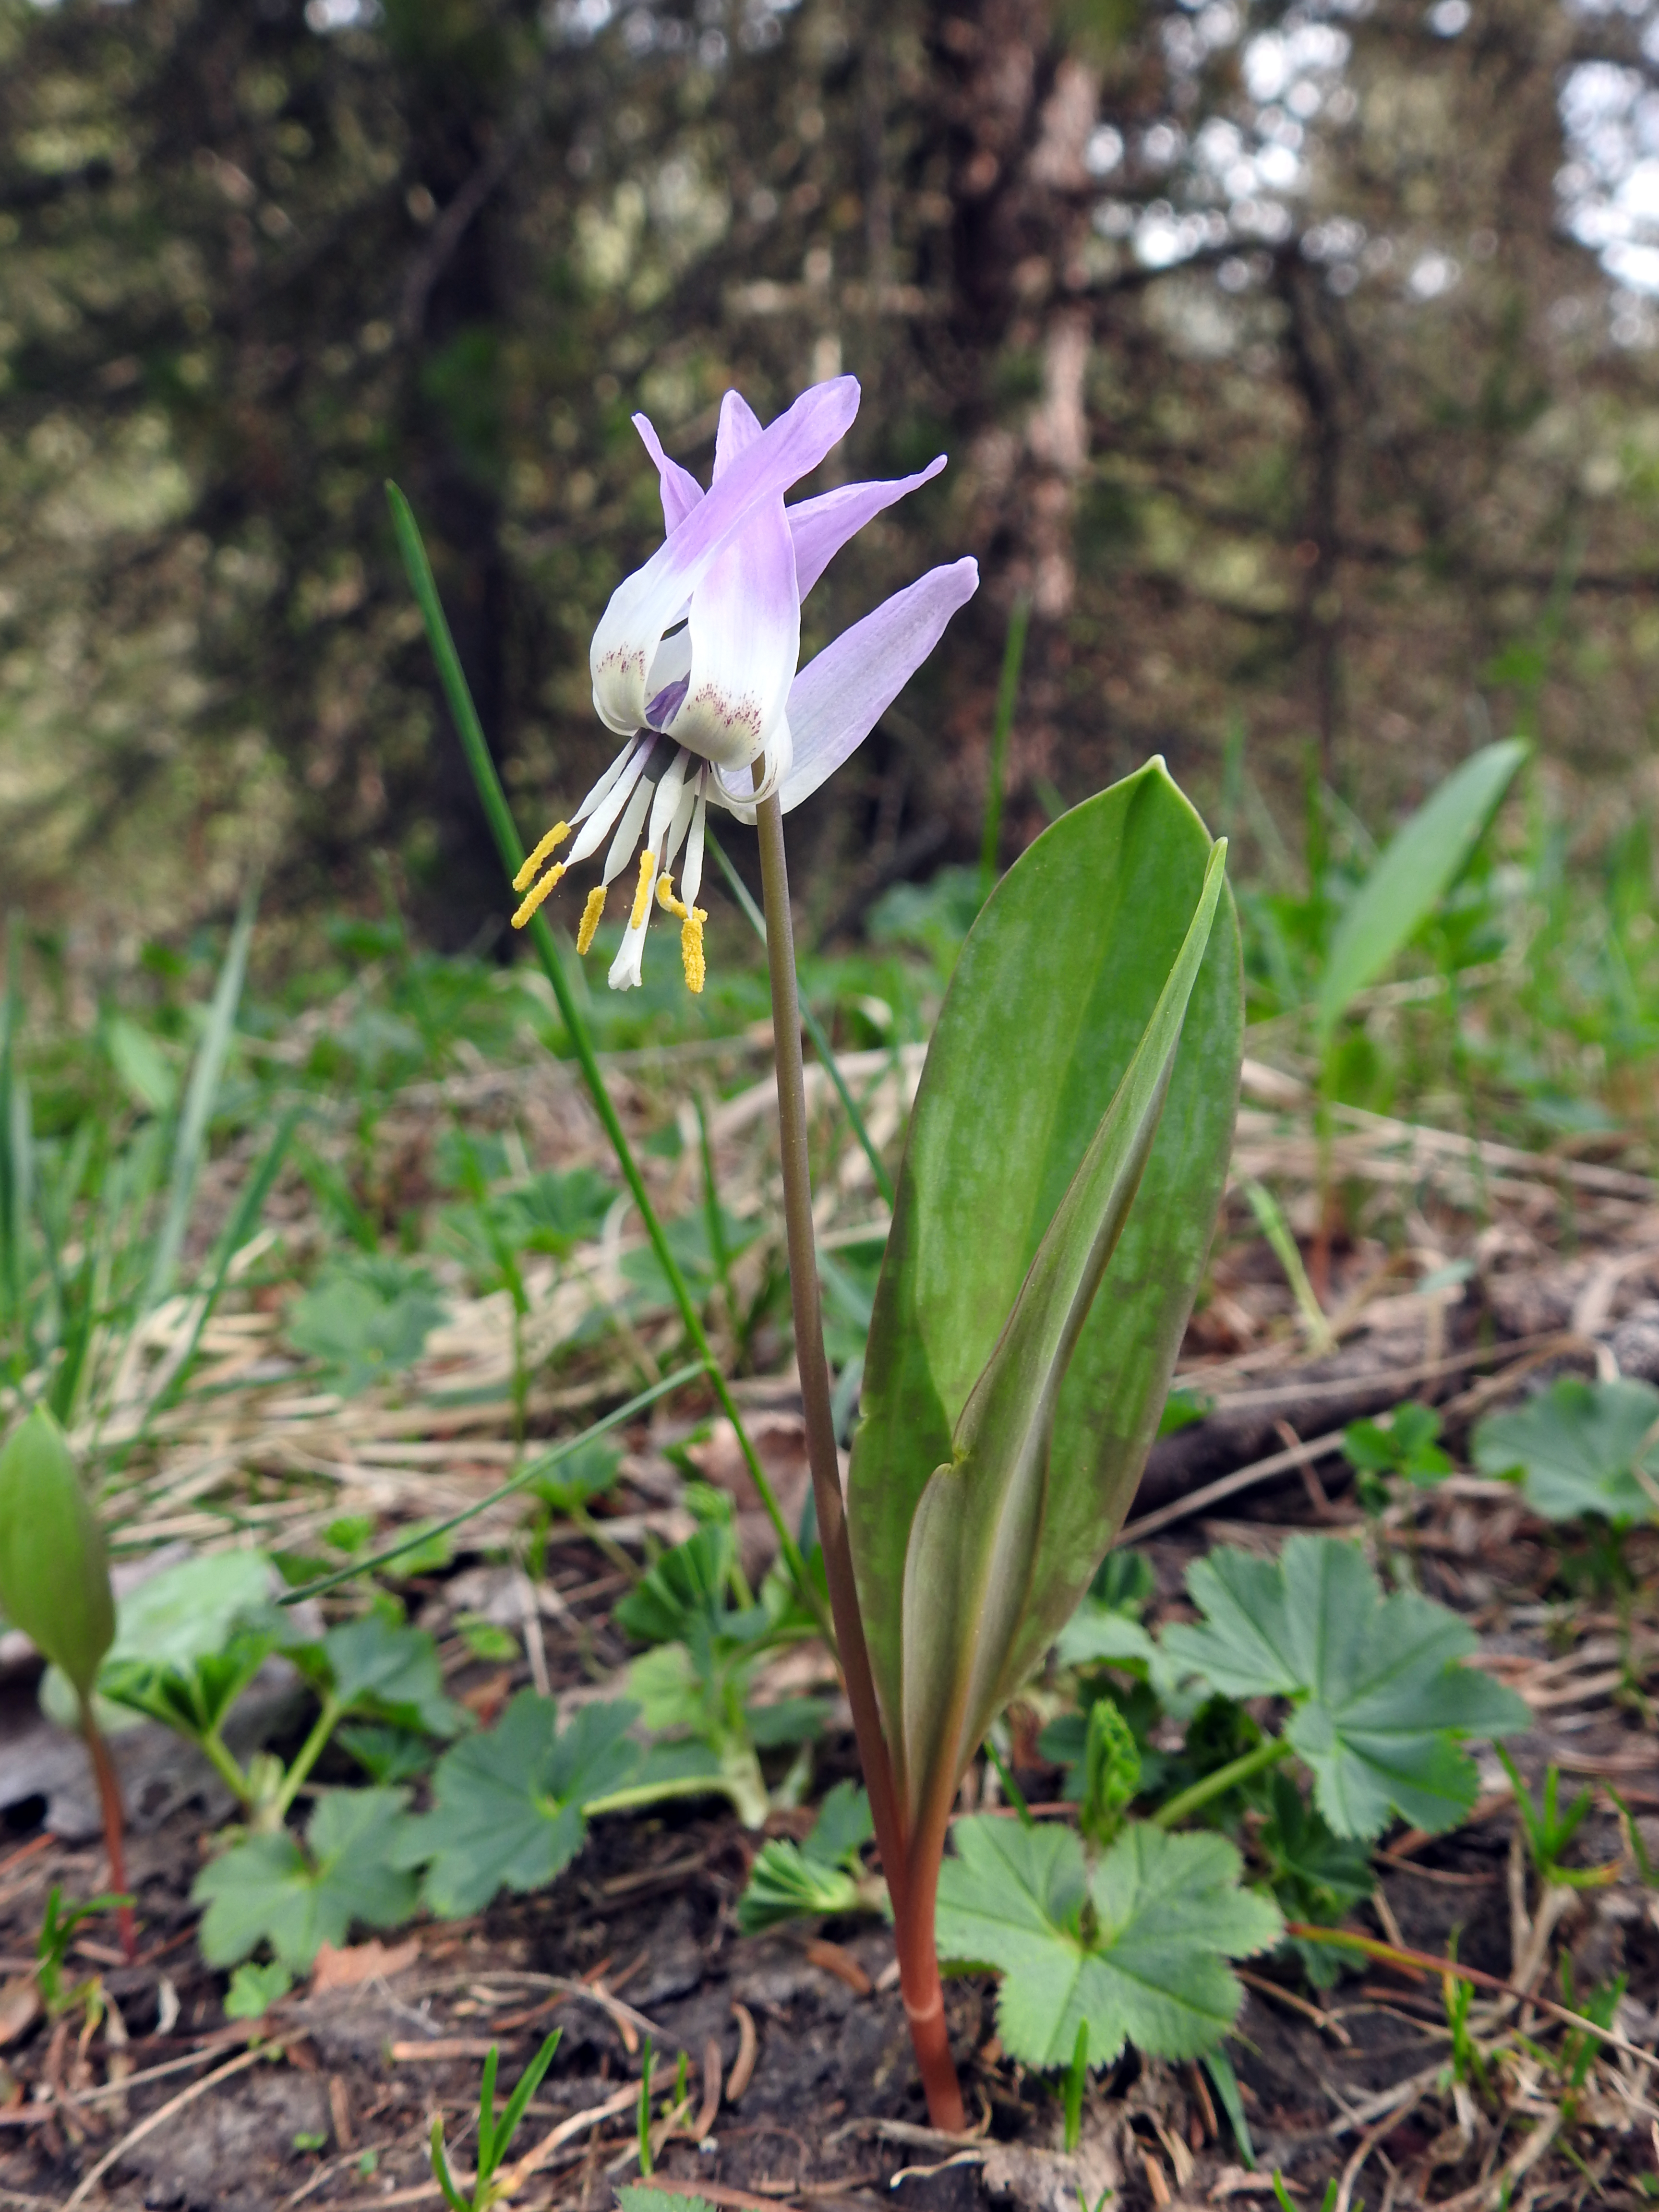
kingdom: Plantae
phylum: Tracheophyta
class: Liliopsida
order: Liliales
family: Liliaceae
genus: Erythronium
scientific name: Erythronium sibiricum
